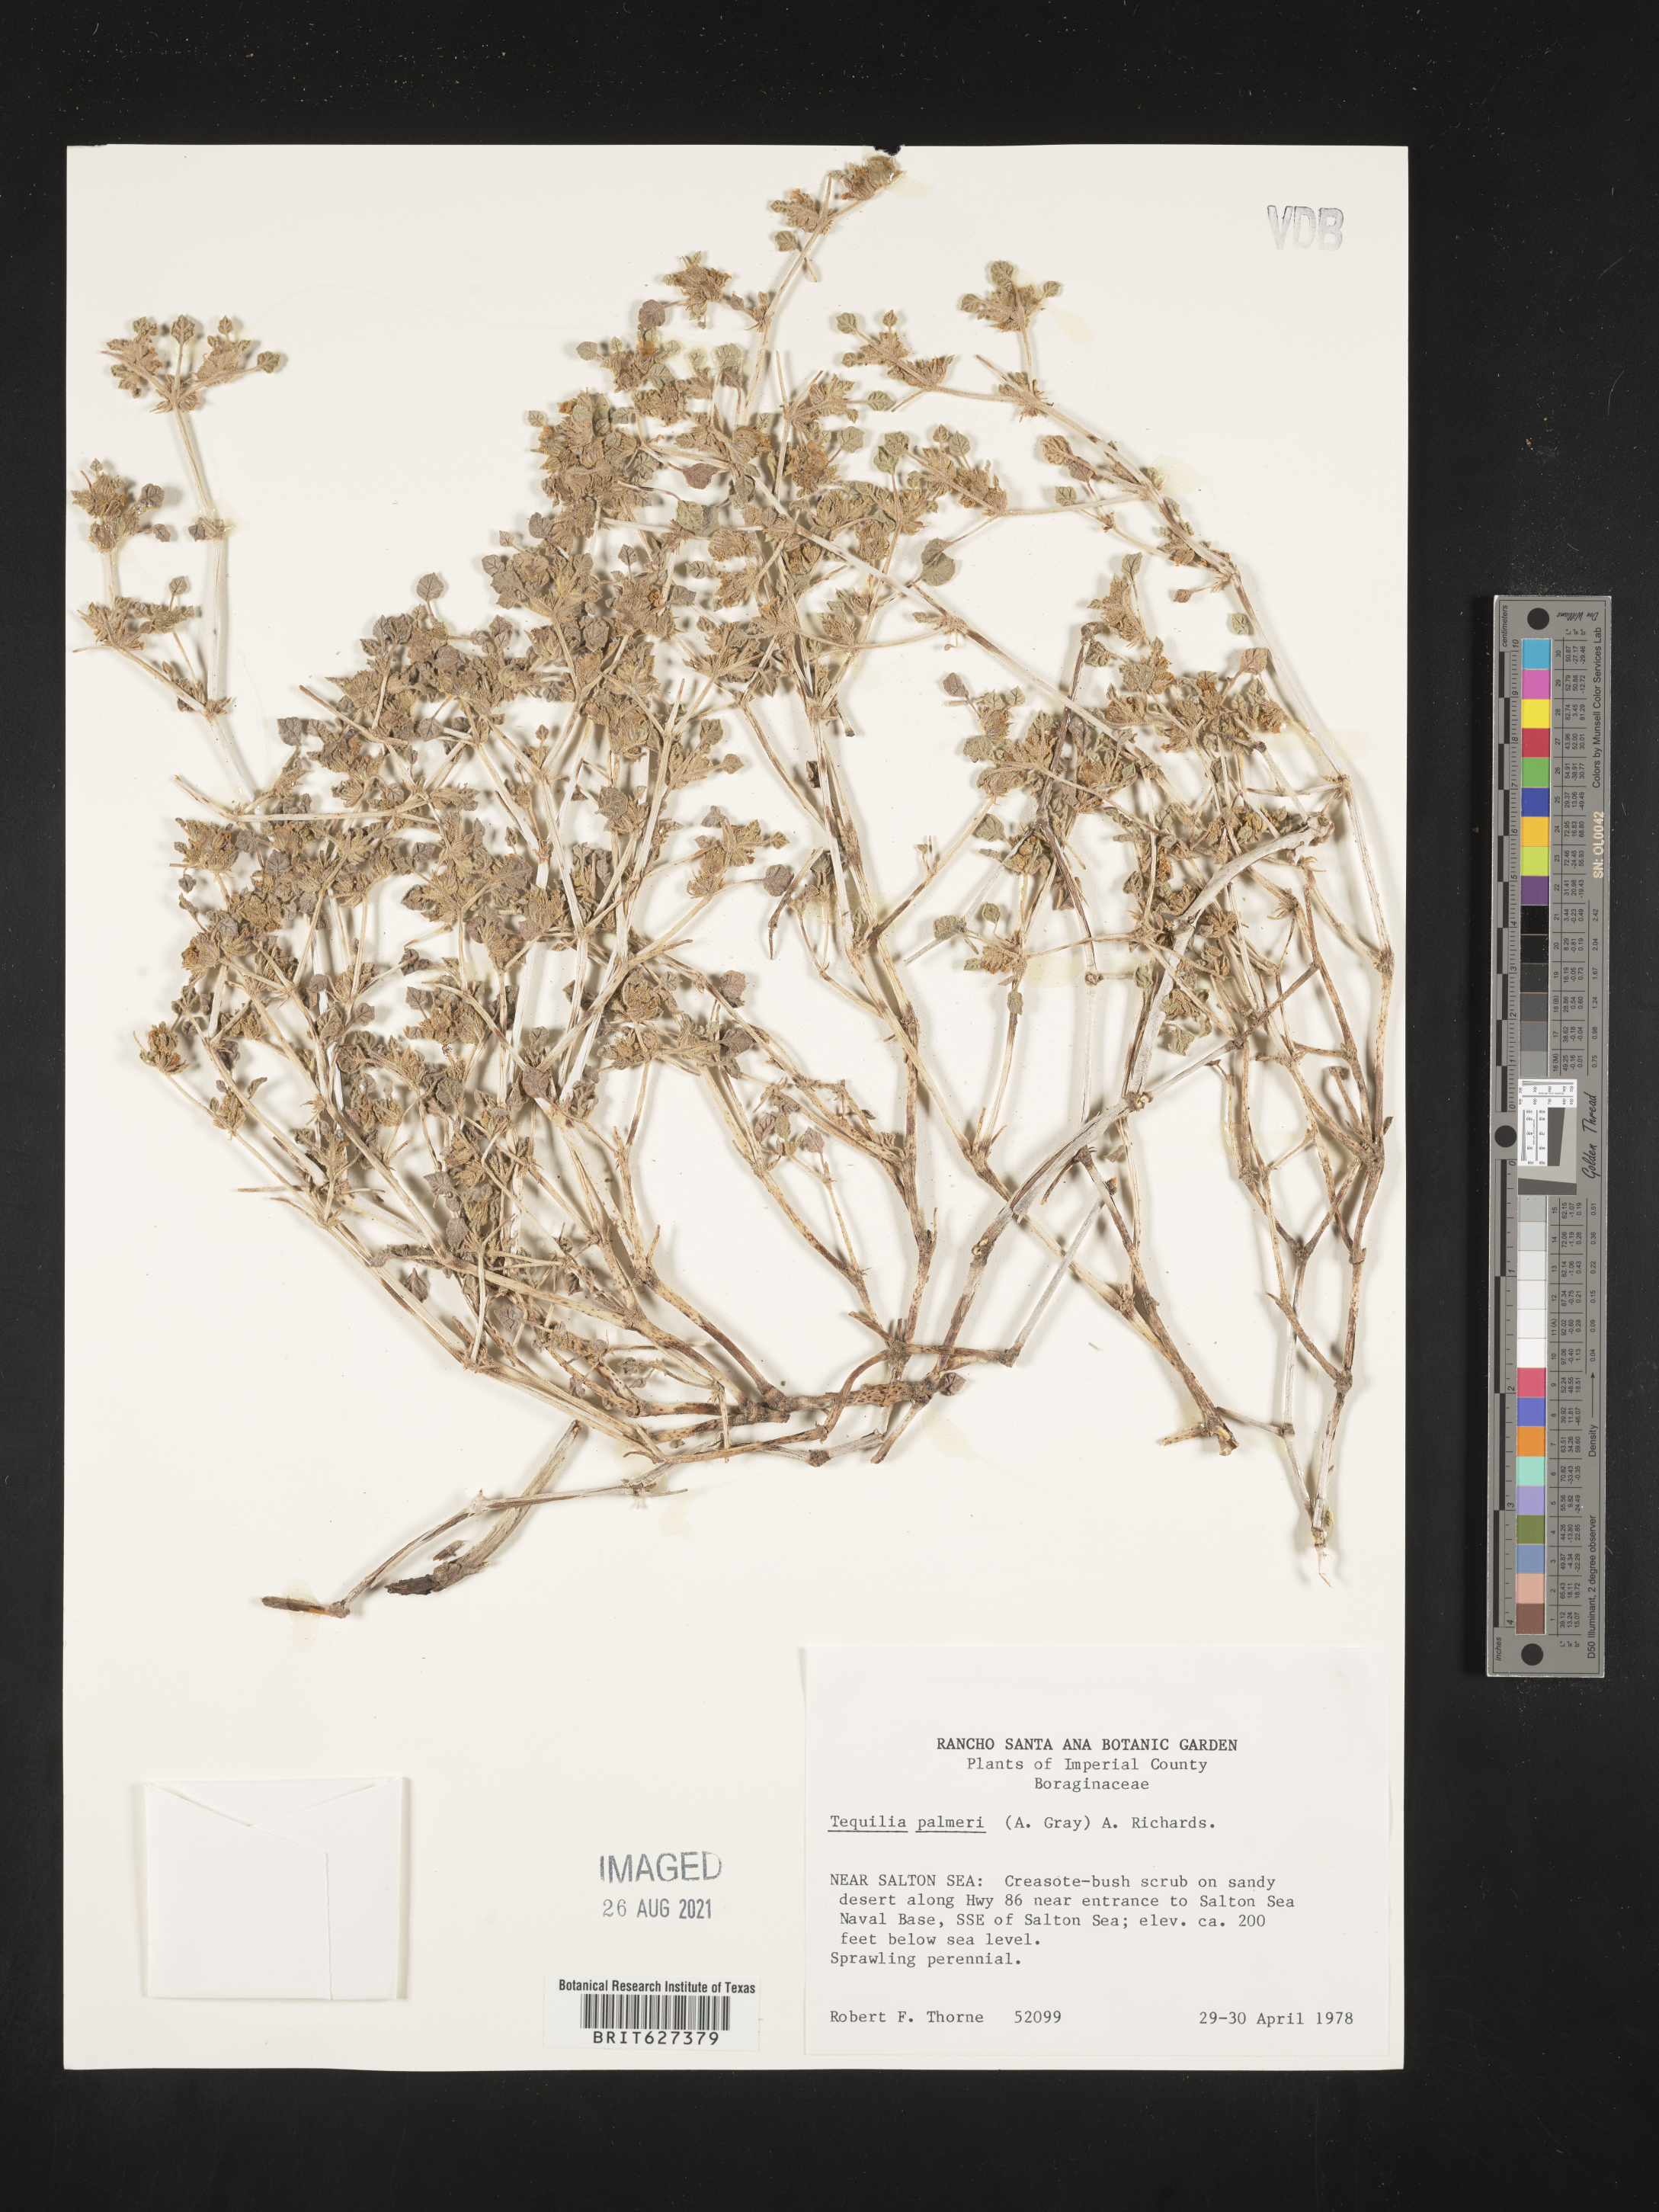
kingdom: Plantae
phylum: Tracheophyta
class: Magnoliopsida
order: Boraginales
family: Ehretiaceae
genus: Tiquilia
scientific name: Tiquilia palmeri
